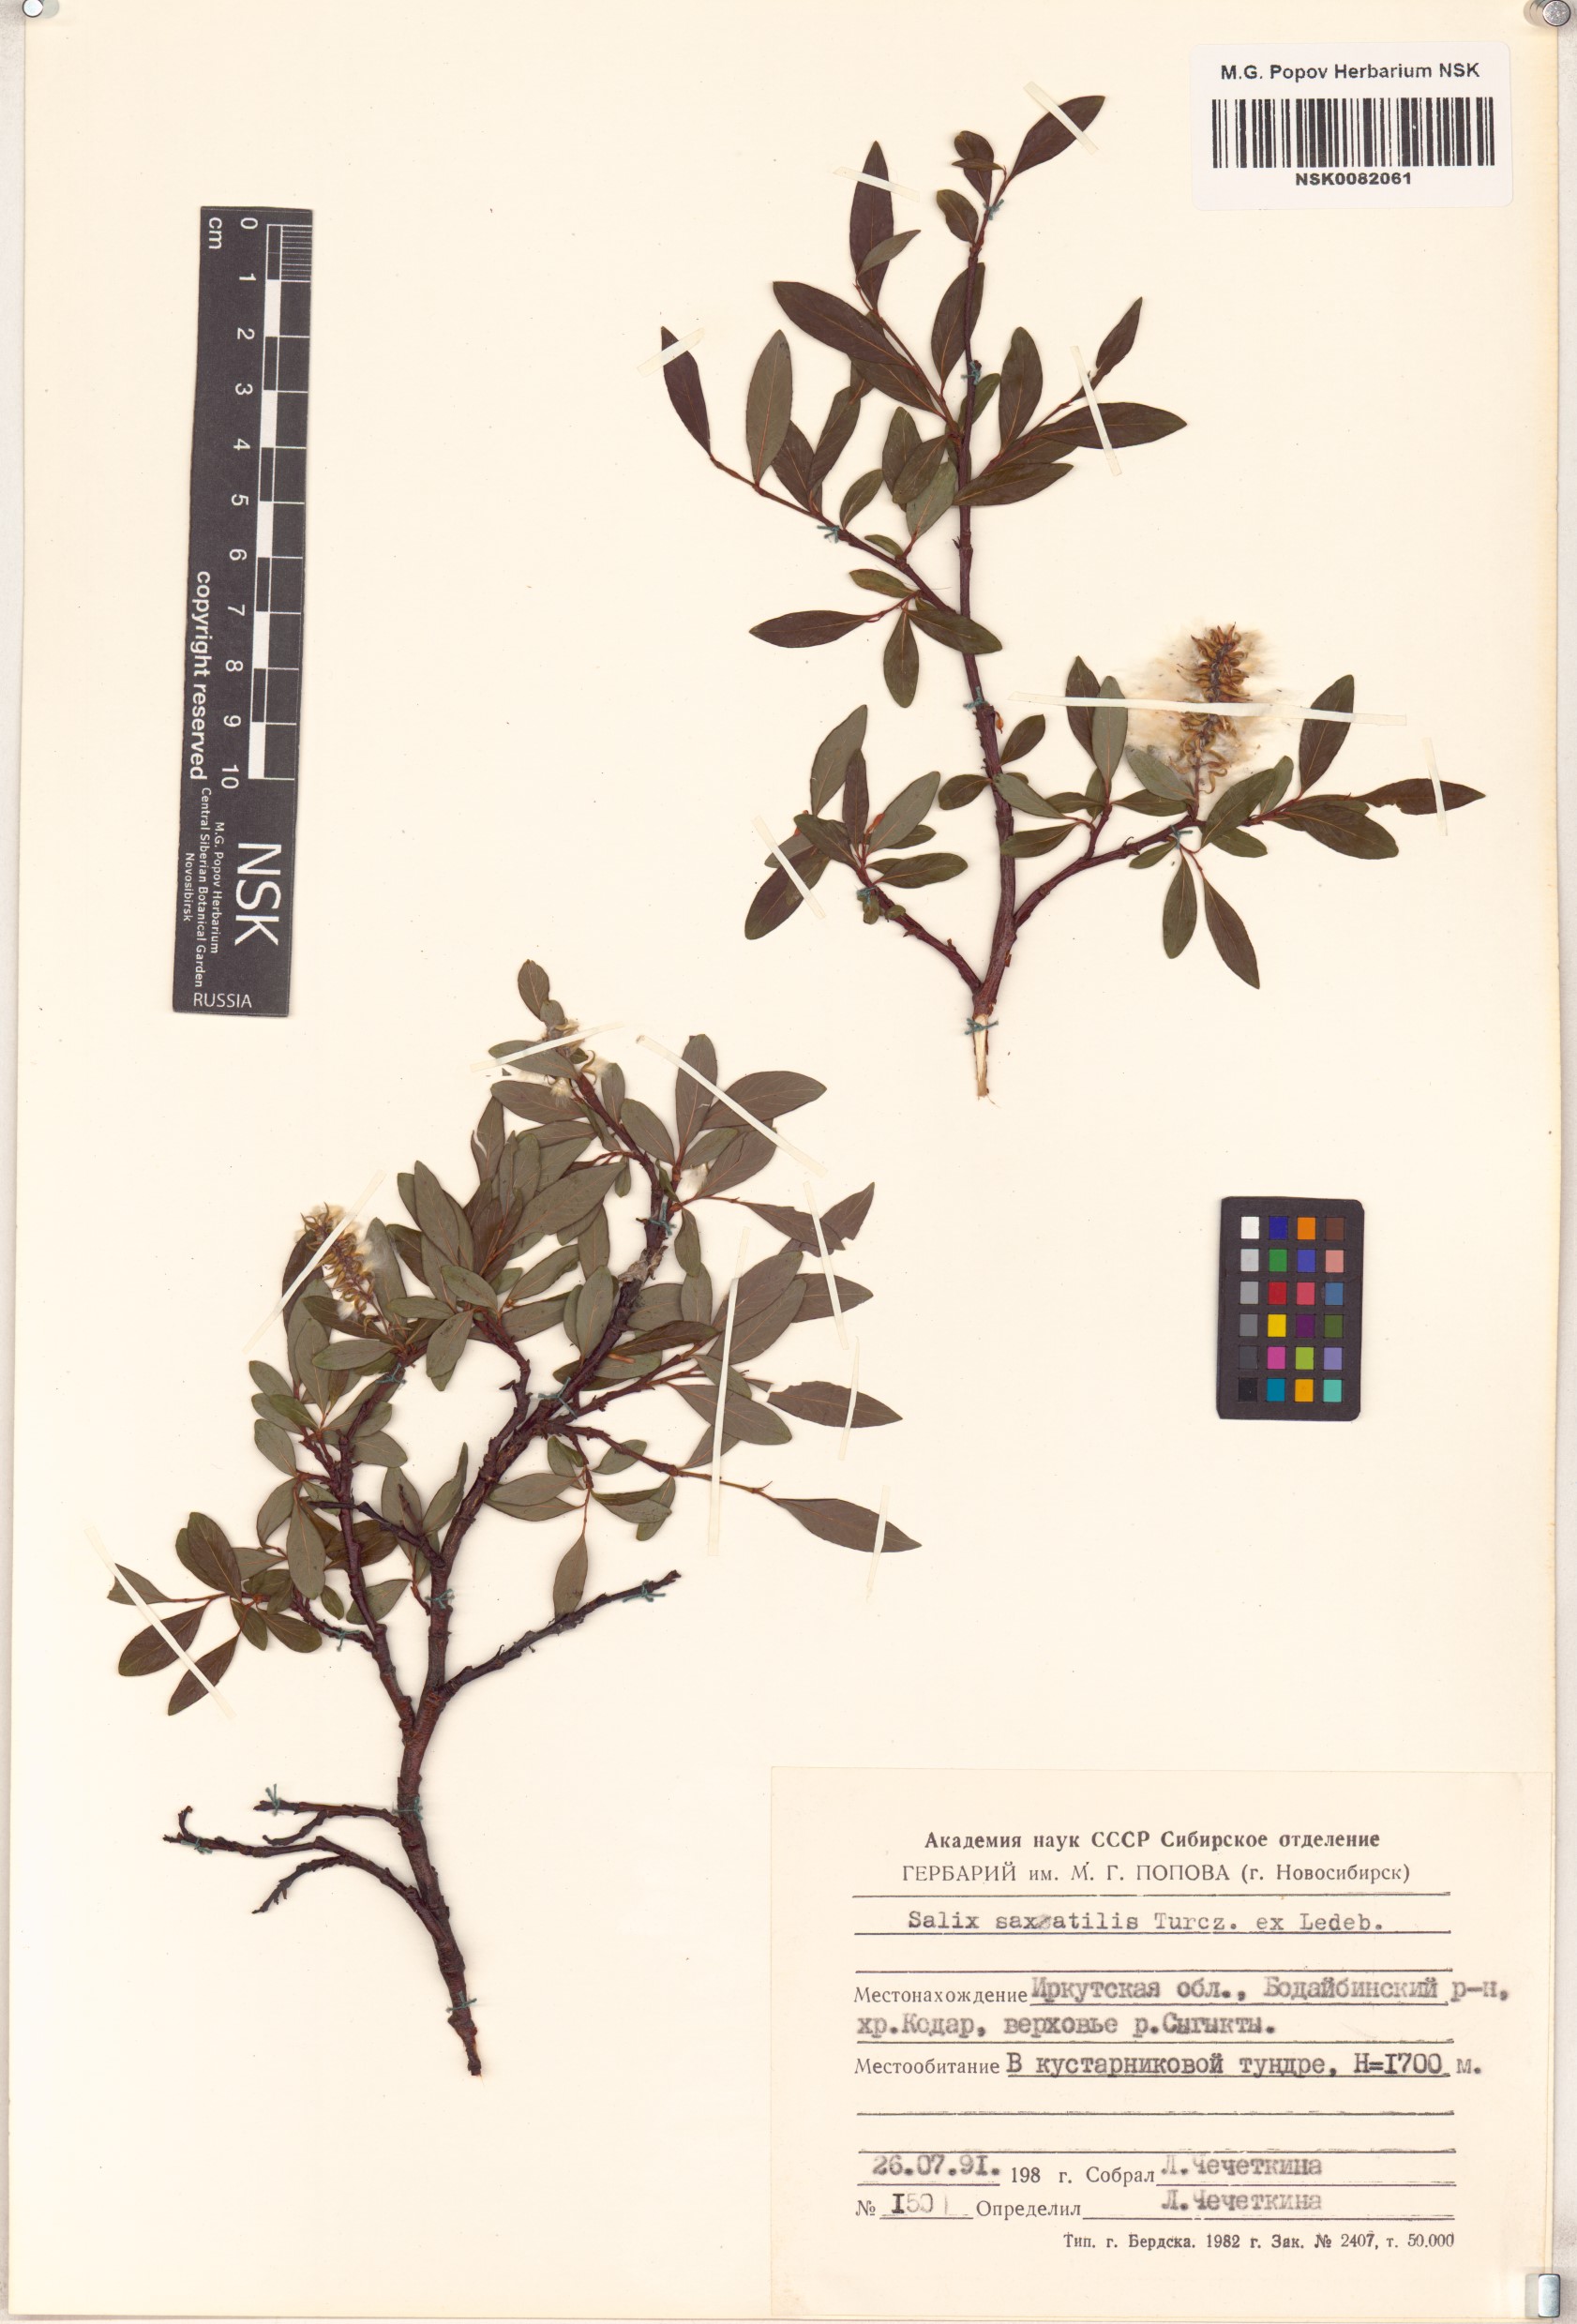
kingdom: Plantae
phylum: Tracheophyta
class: Magnoliopsida
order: Malpighiales
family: Salicaceae
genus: Salix
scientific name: Salix saxatilis
